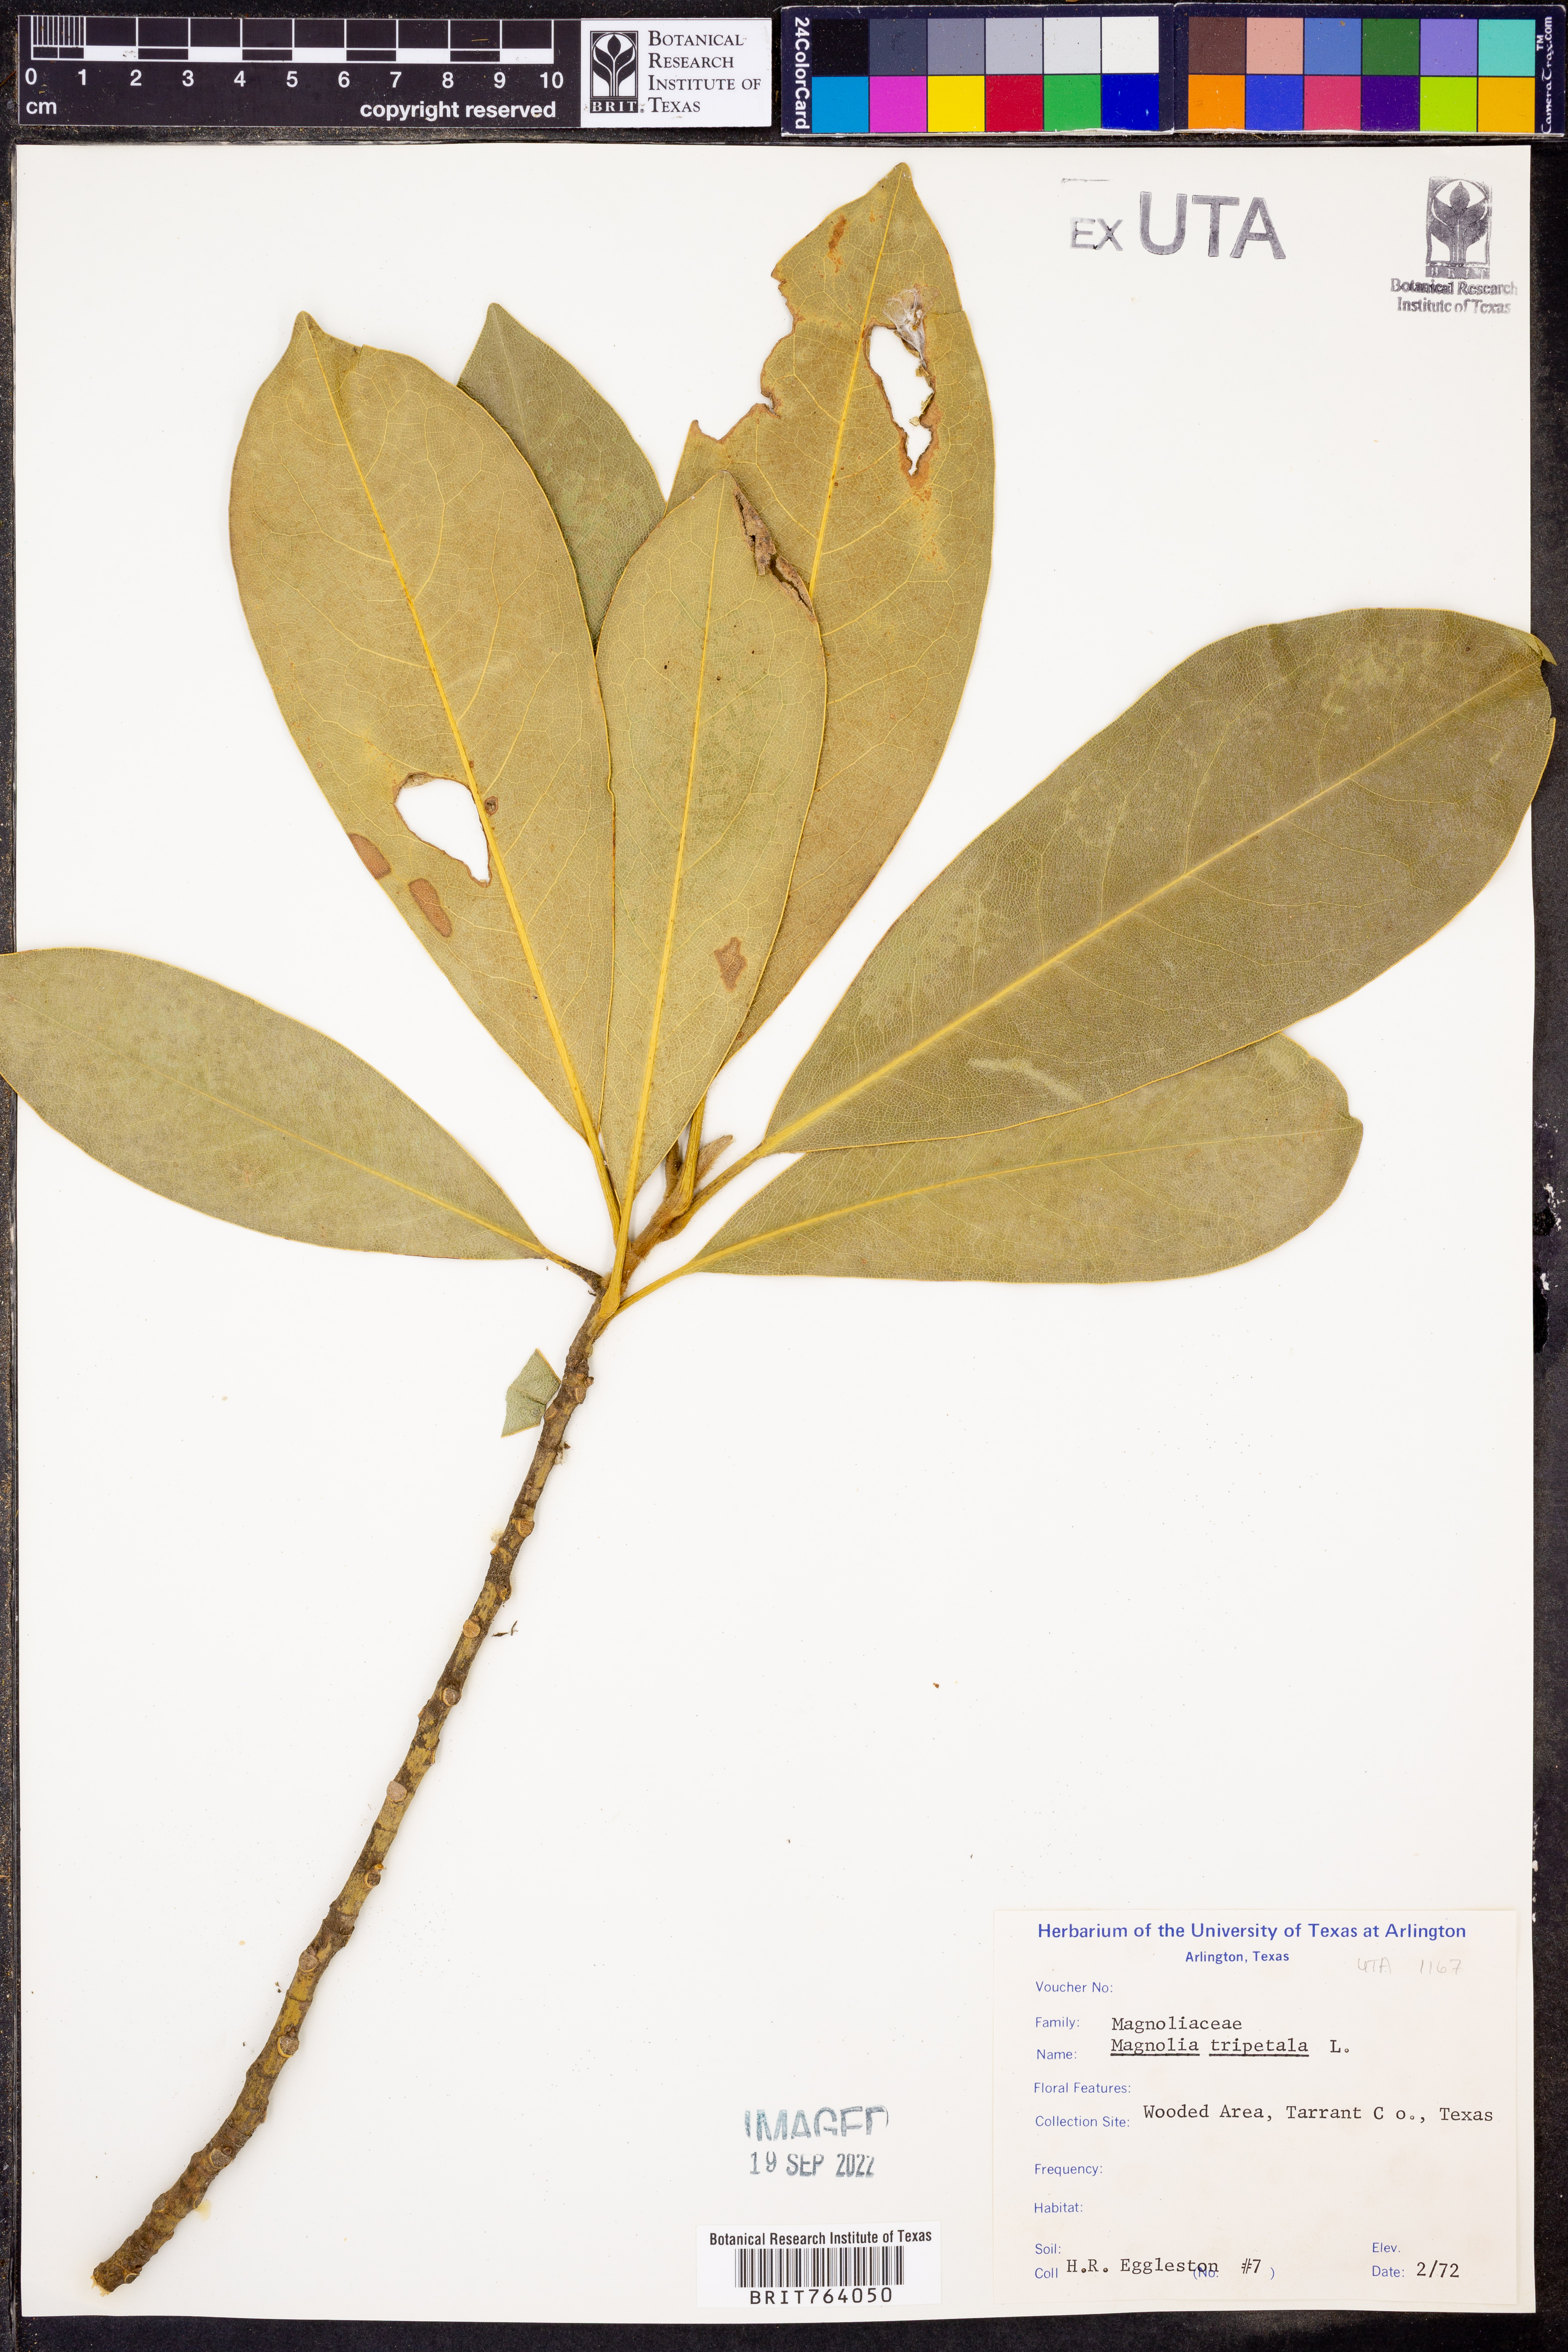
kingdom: Plantae
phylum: Tracheophyta
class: Magnoliopsida
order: Magnoliales
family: Magnoliaceae
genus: Magnolia
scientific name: Magnolia tripetala
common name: Umbrella magnolia
